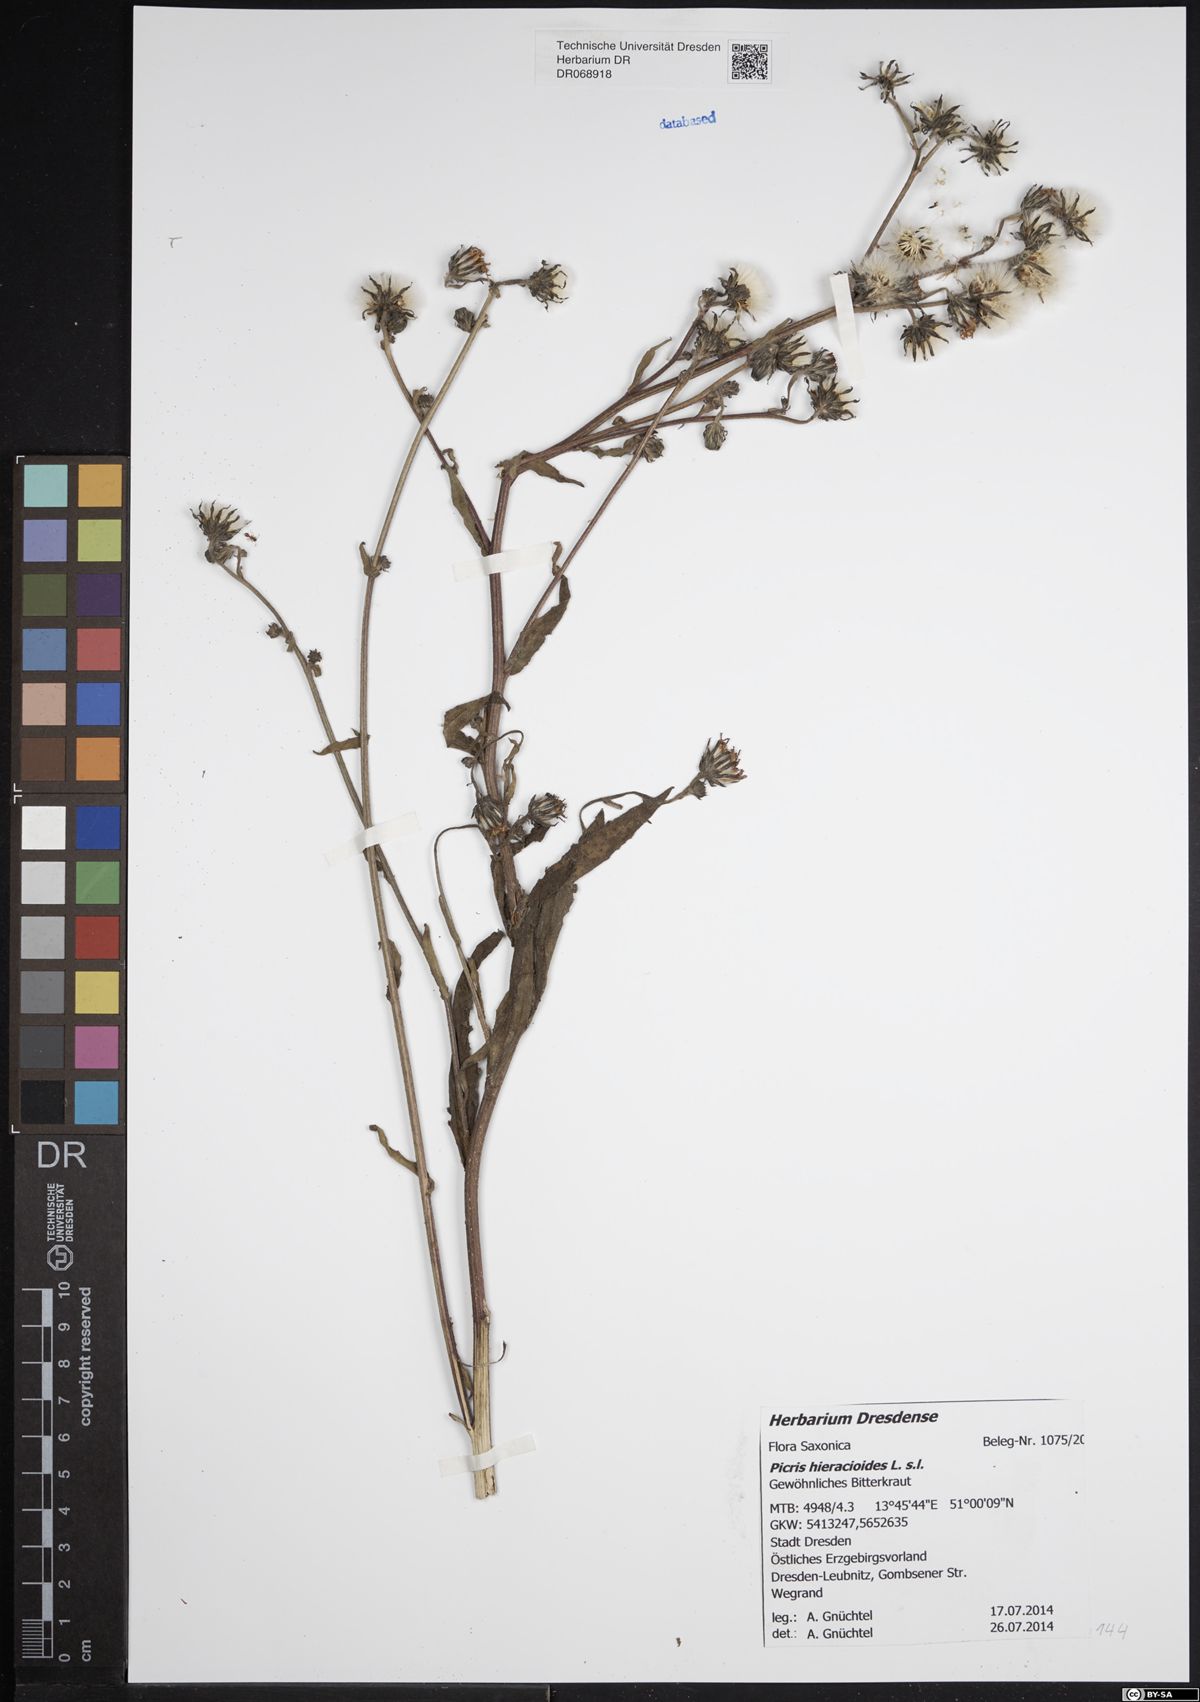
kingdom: Plantae
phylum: Tracheophyta
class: Magnoliopsida
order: Asterales
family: Asteraceae
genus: Picris
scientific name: Picris hieracioides
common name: Hawkweed oxtongue
